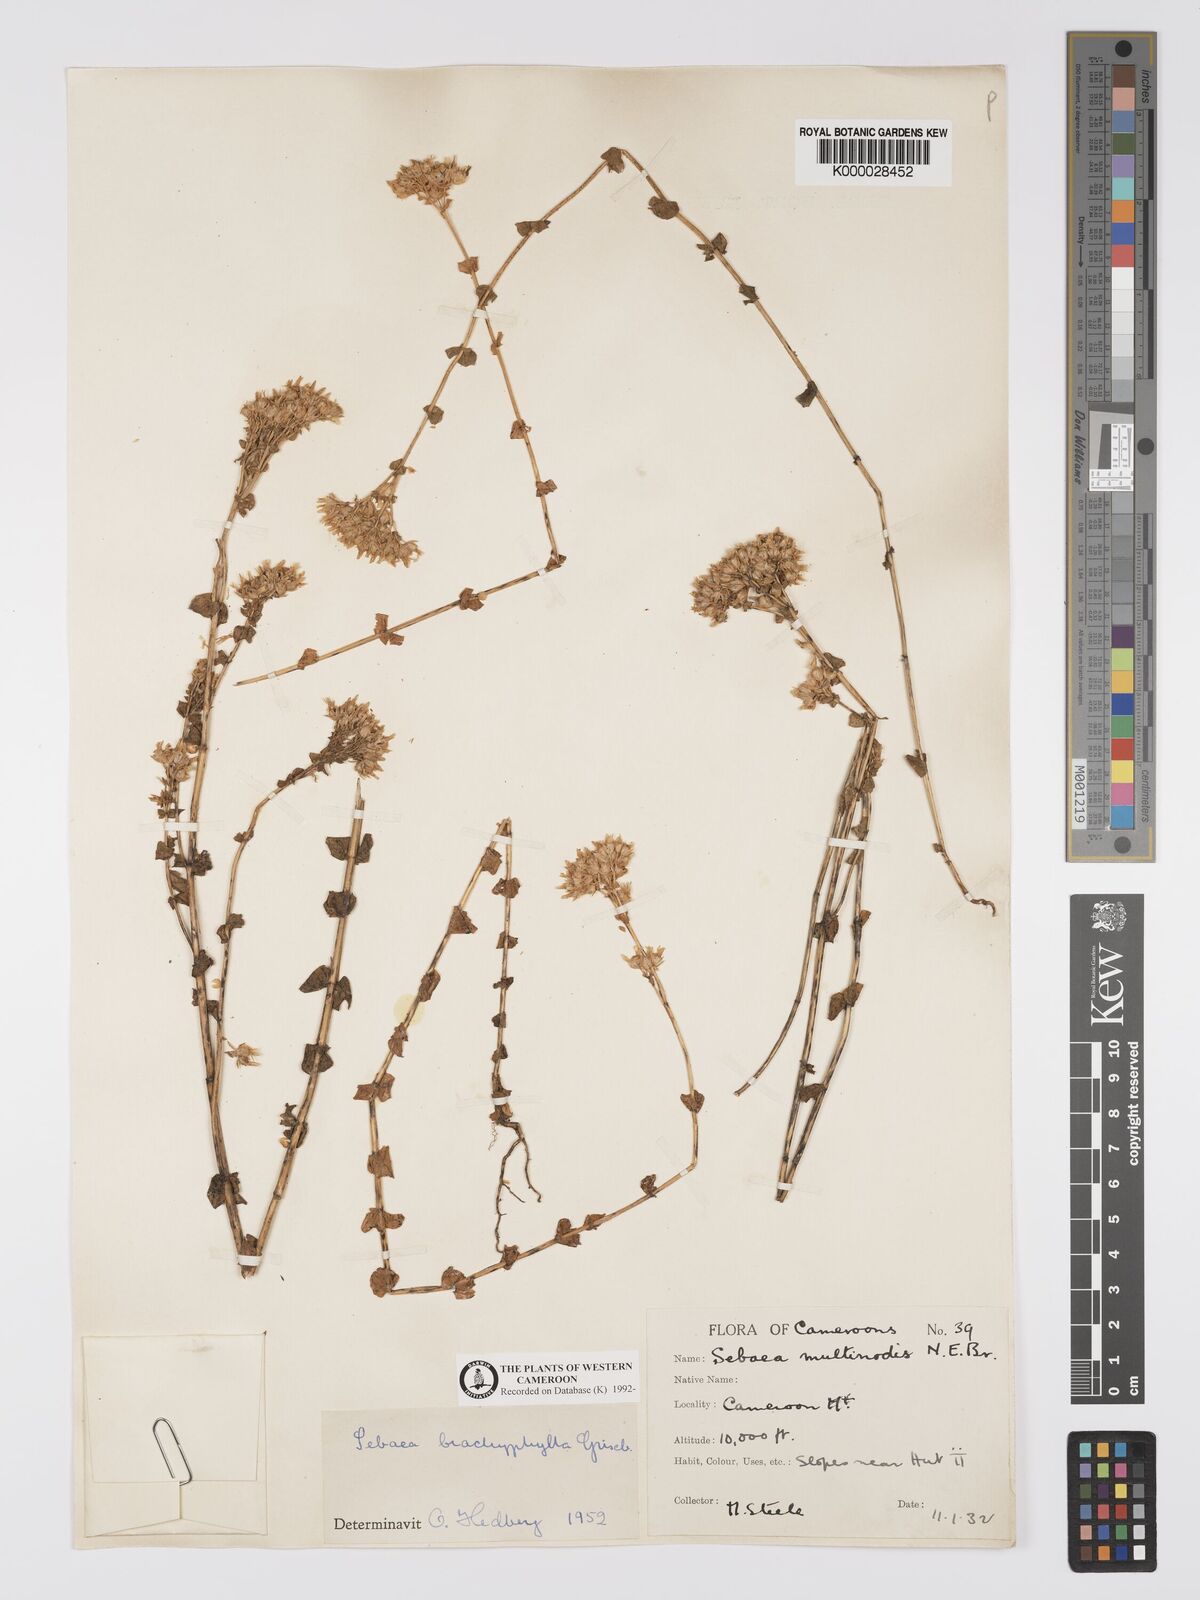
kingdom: Plantae
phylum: Tracheophyta
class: Magnoliopsida
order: Gentianales
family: Gentianaceae
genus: Sebaea
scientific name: Sebaea brachyphylla
